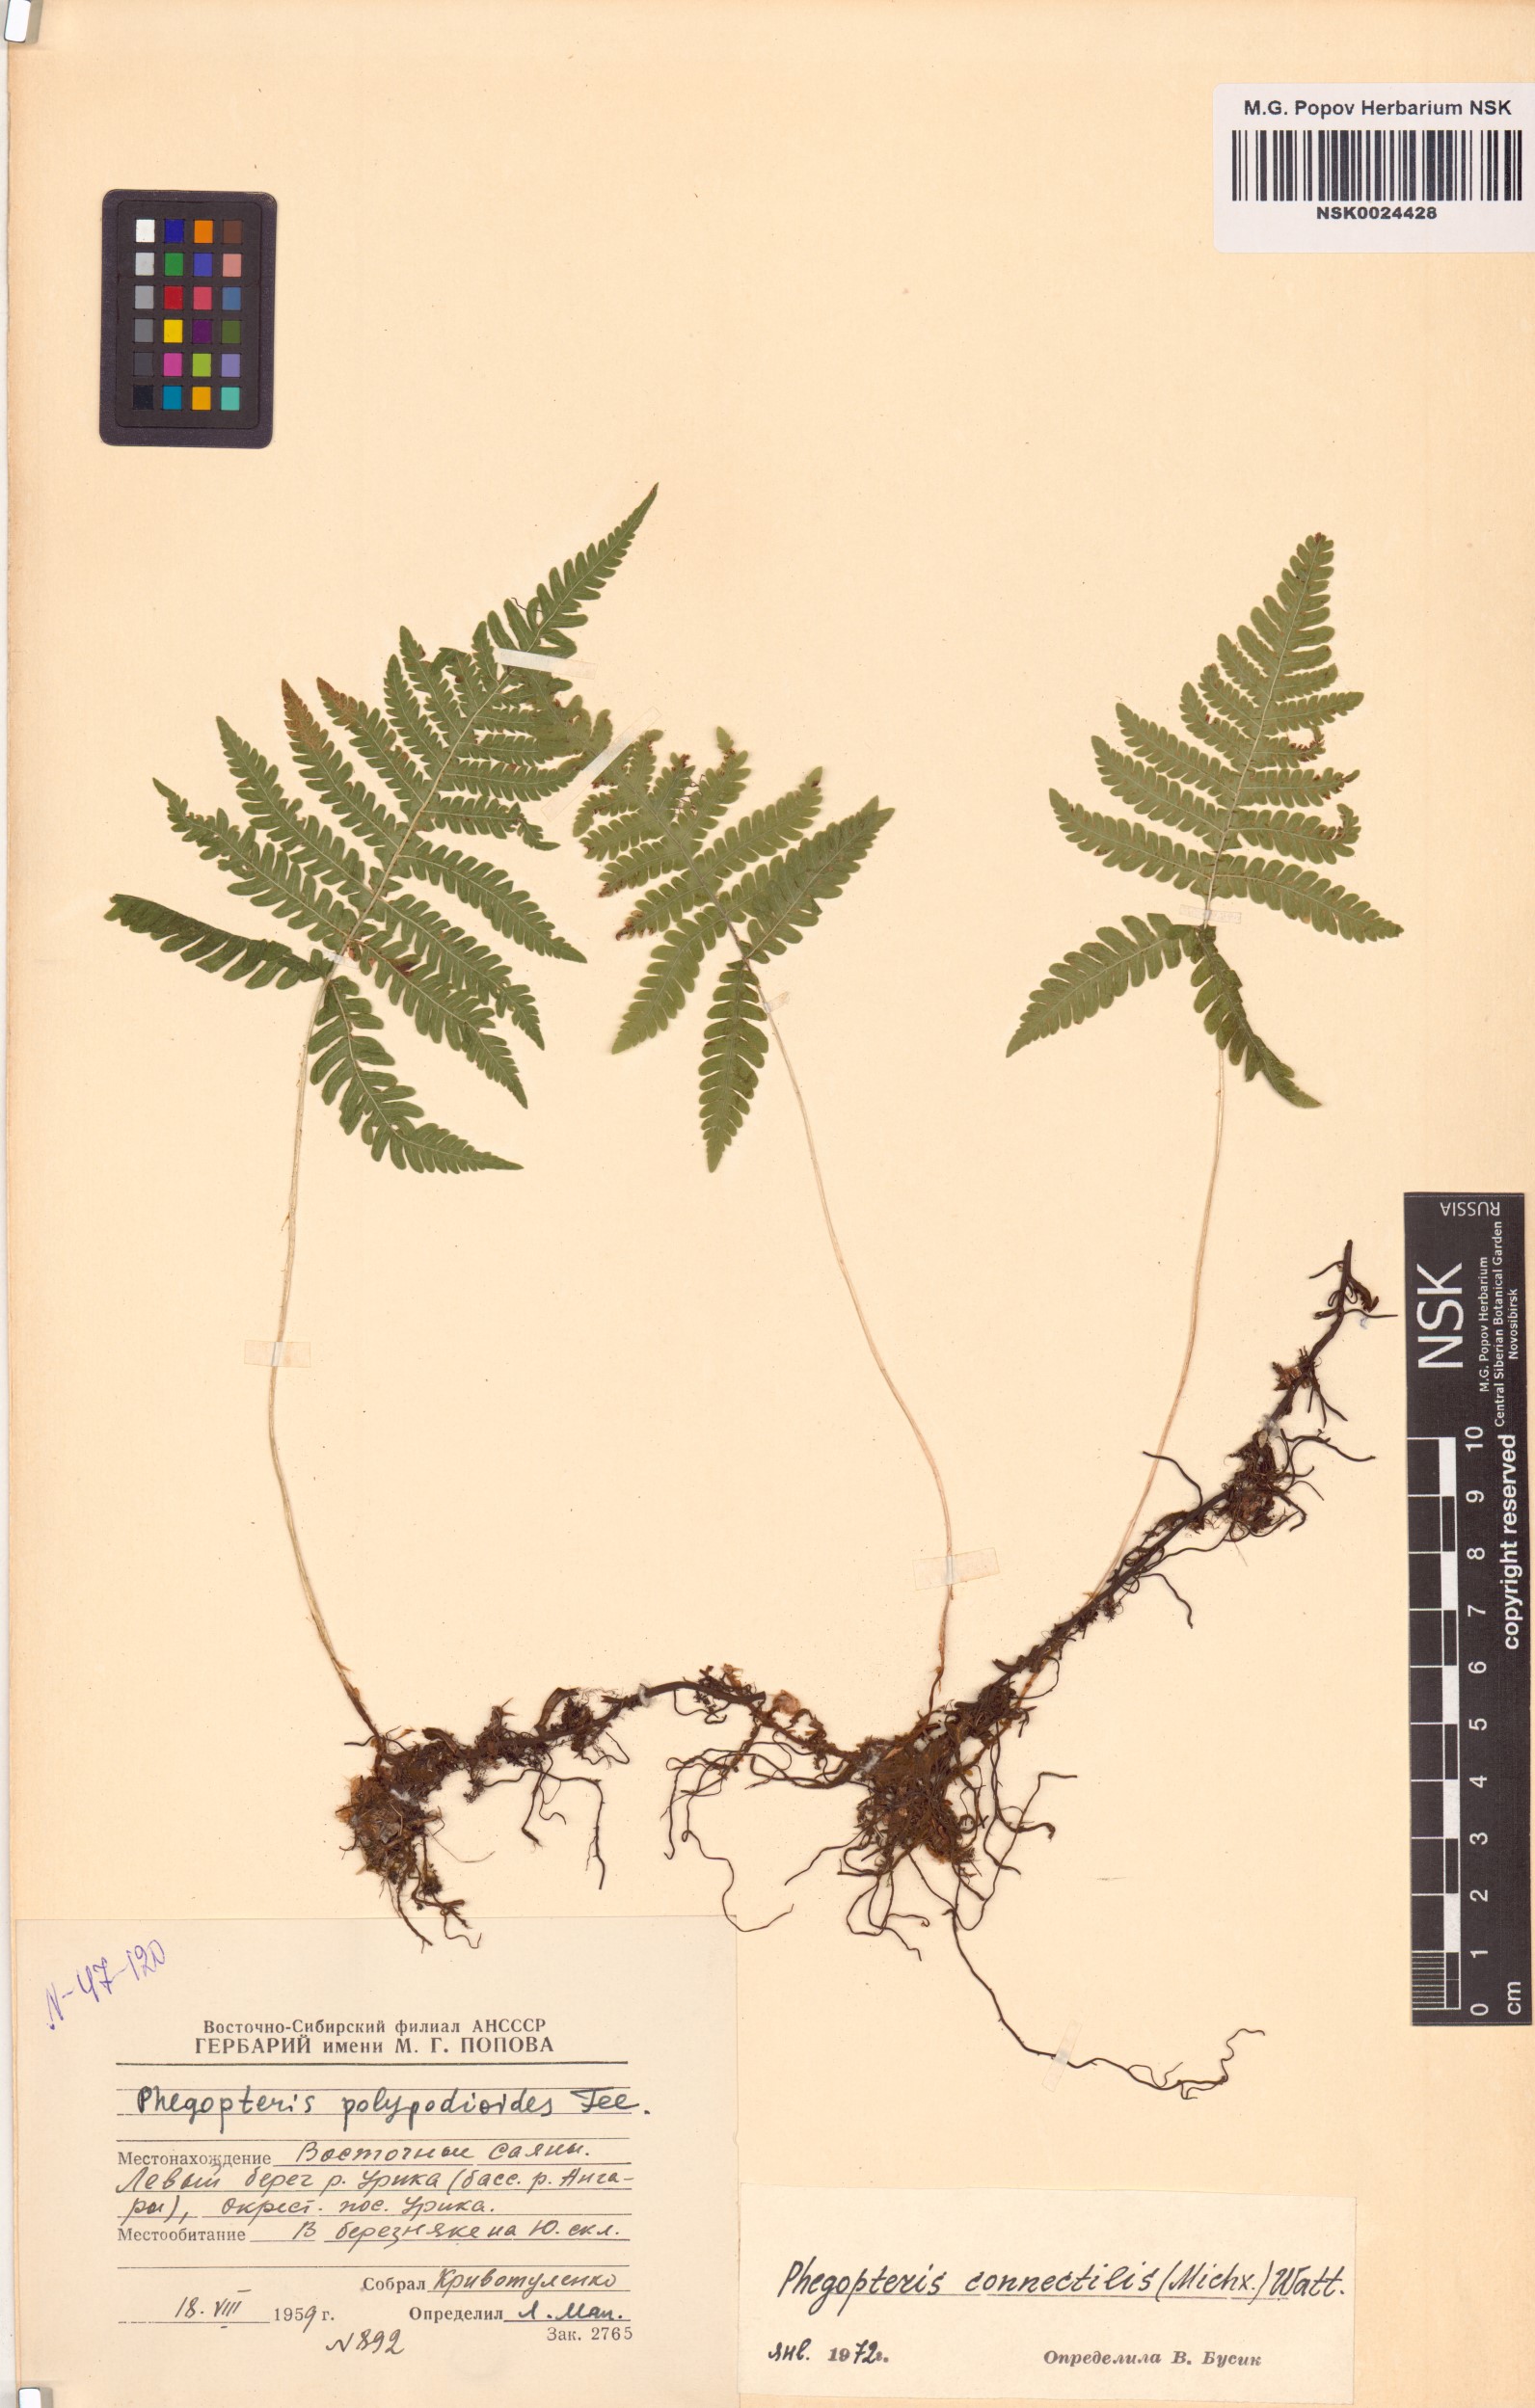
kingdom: Plantae
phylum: Tracheophyta
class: Polypodiopsida
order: Polypodiales
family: Thelypteridaceae
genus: Phegopteris
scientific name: Phegopteris connectilis
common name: Beech fern
